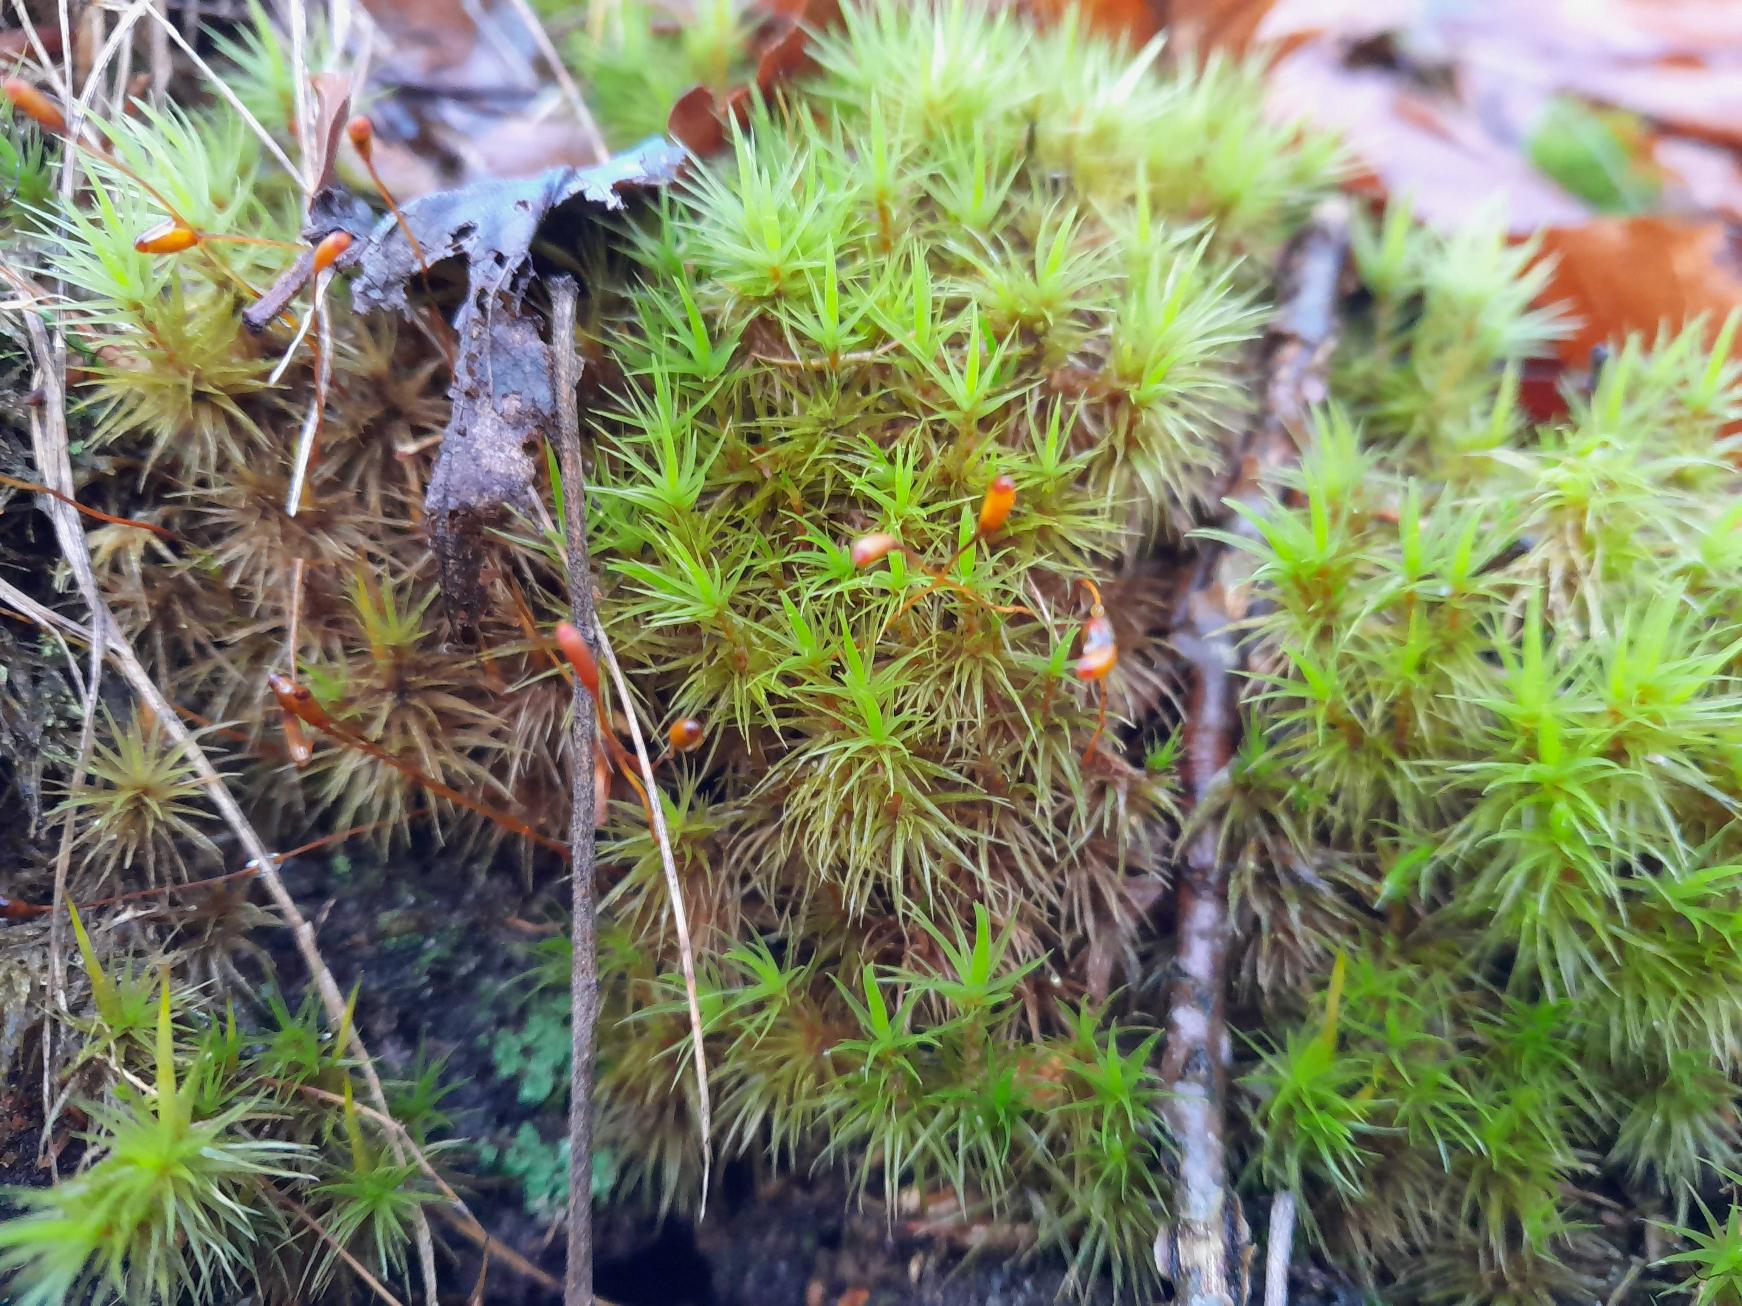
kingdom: Plantae
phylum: Bryophyta
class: Bryopsida
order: Dicranales
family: Dicranaceae
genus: Dicranum
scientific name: Dicranum scoparium
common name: Almindelig kløvtand
